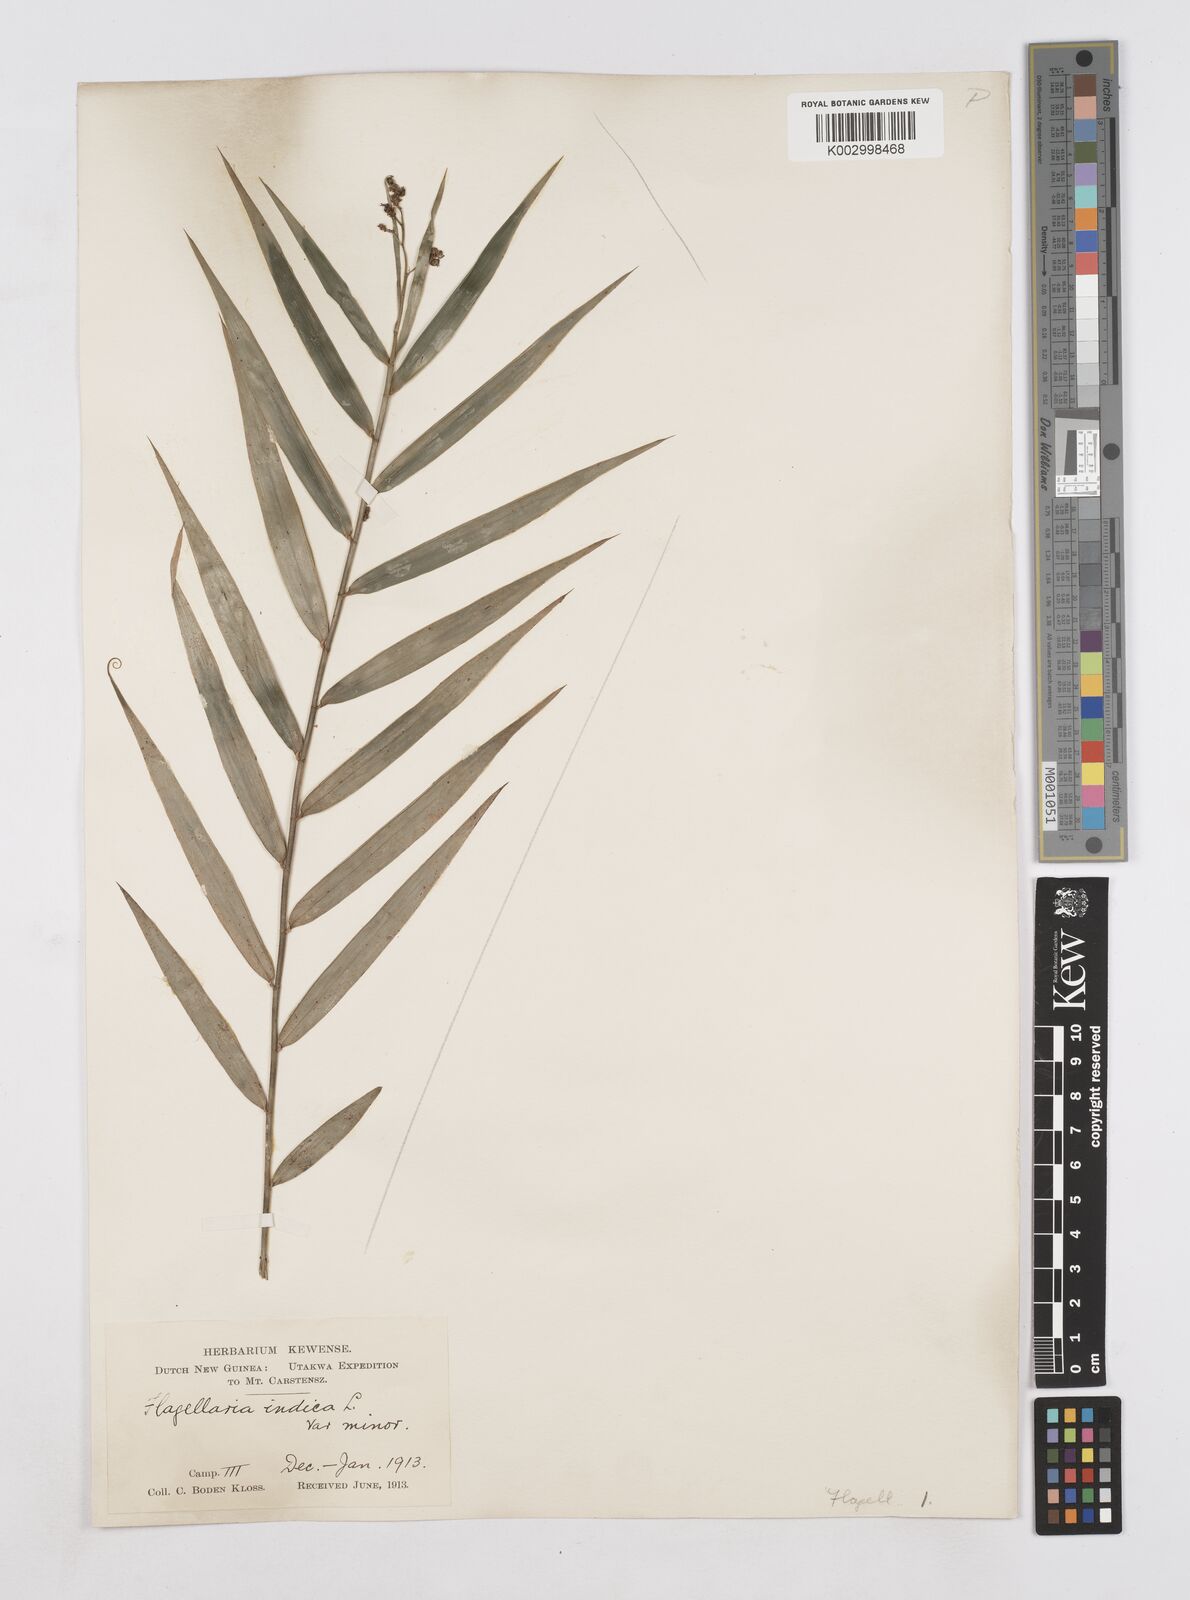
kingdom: Plantae
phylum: Tracheophyta
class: Liliopsida
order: Poales
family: Flagellariaceae
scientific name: Flagellariaceae
